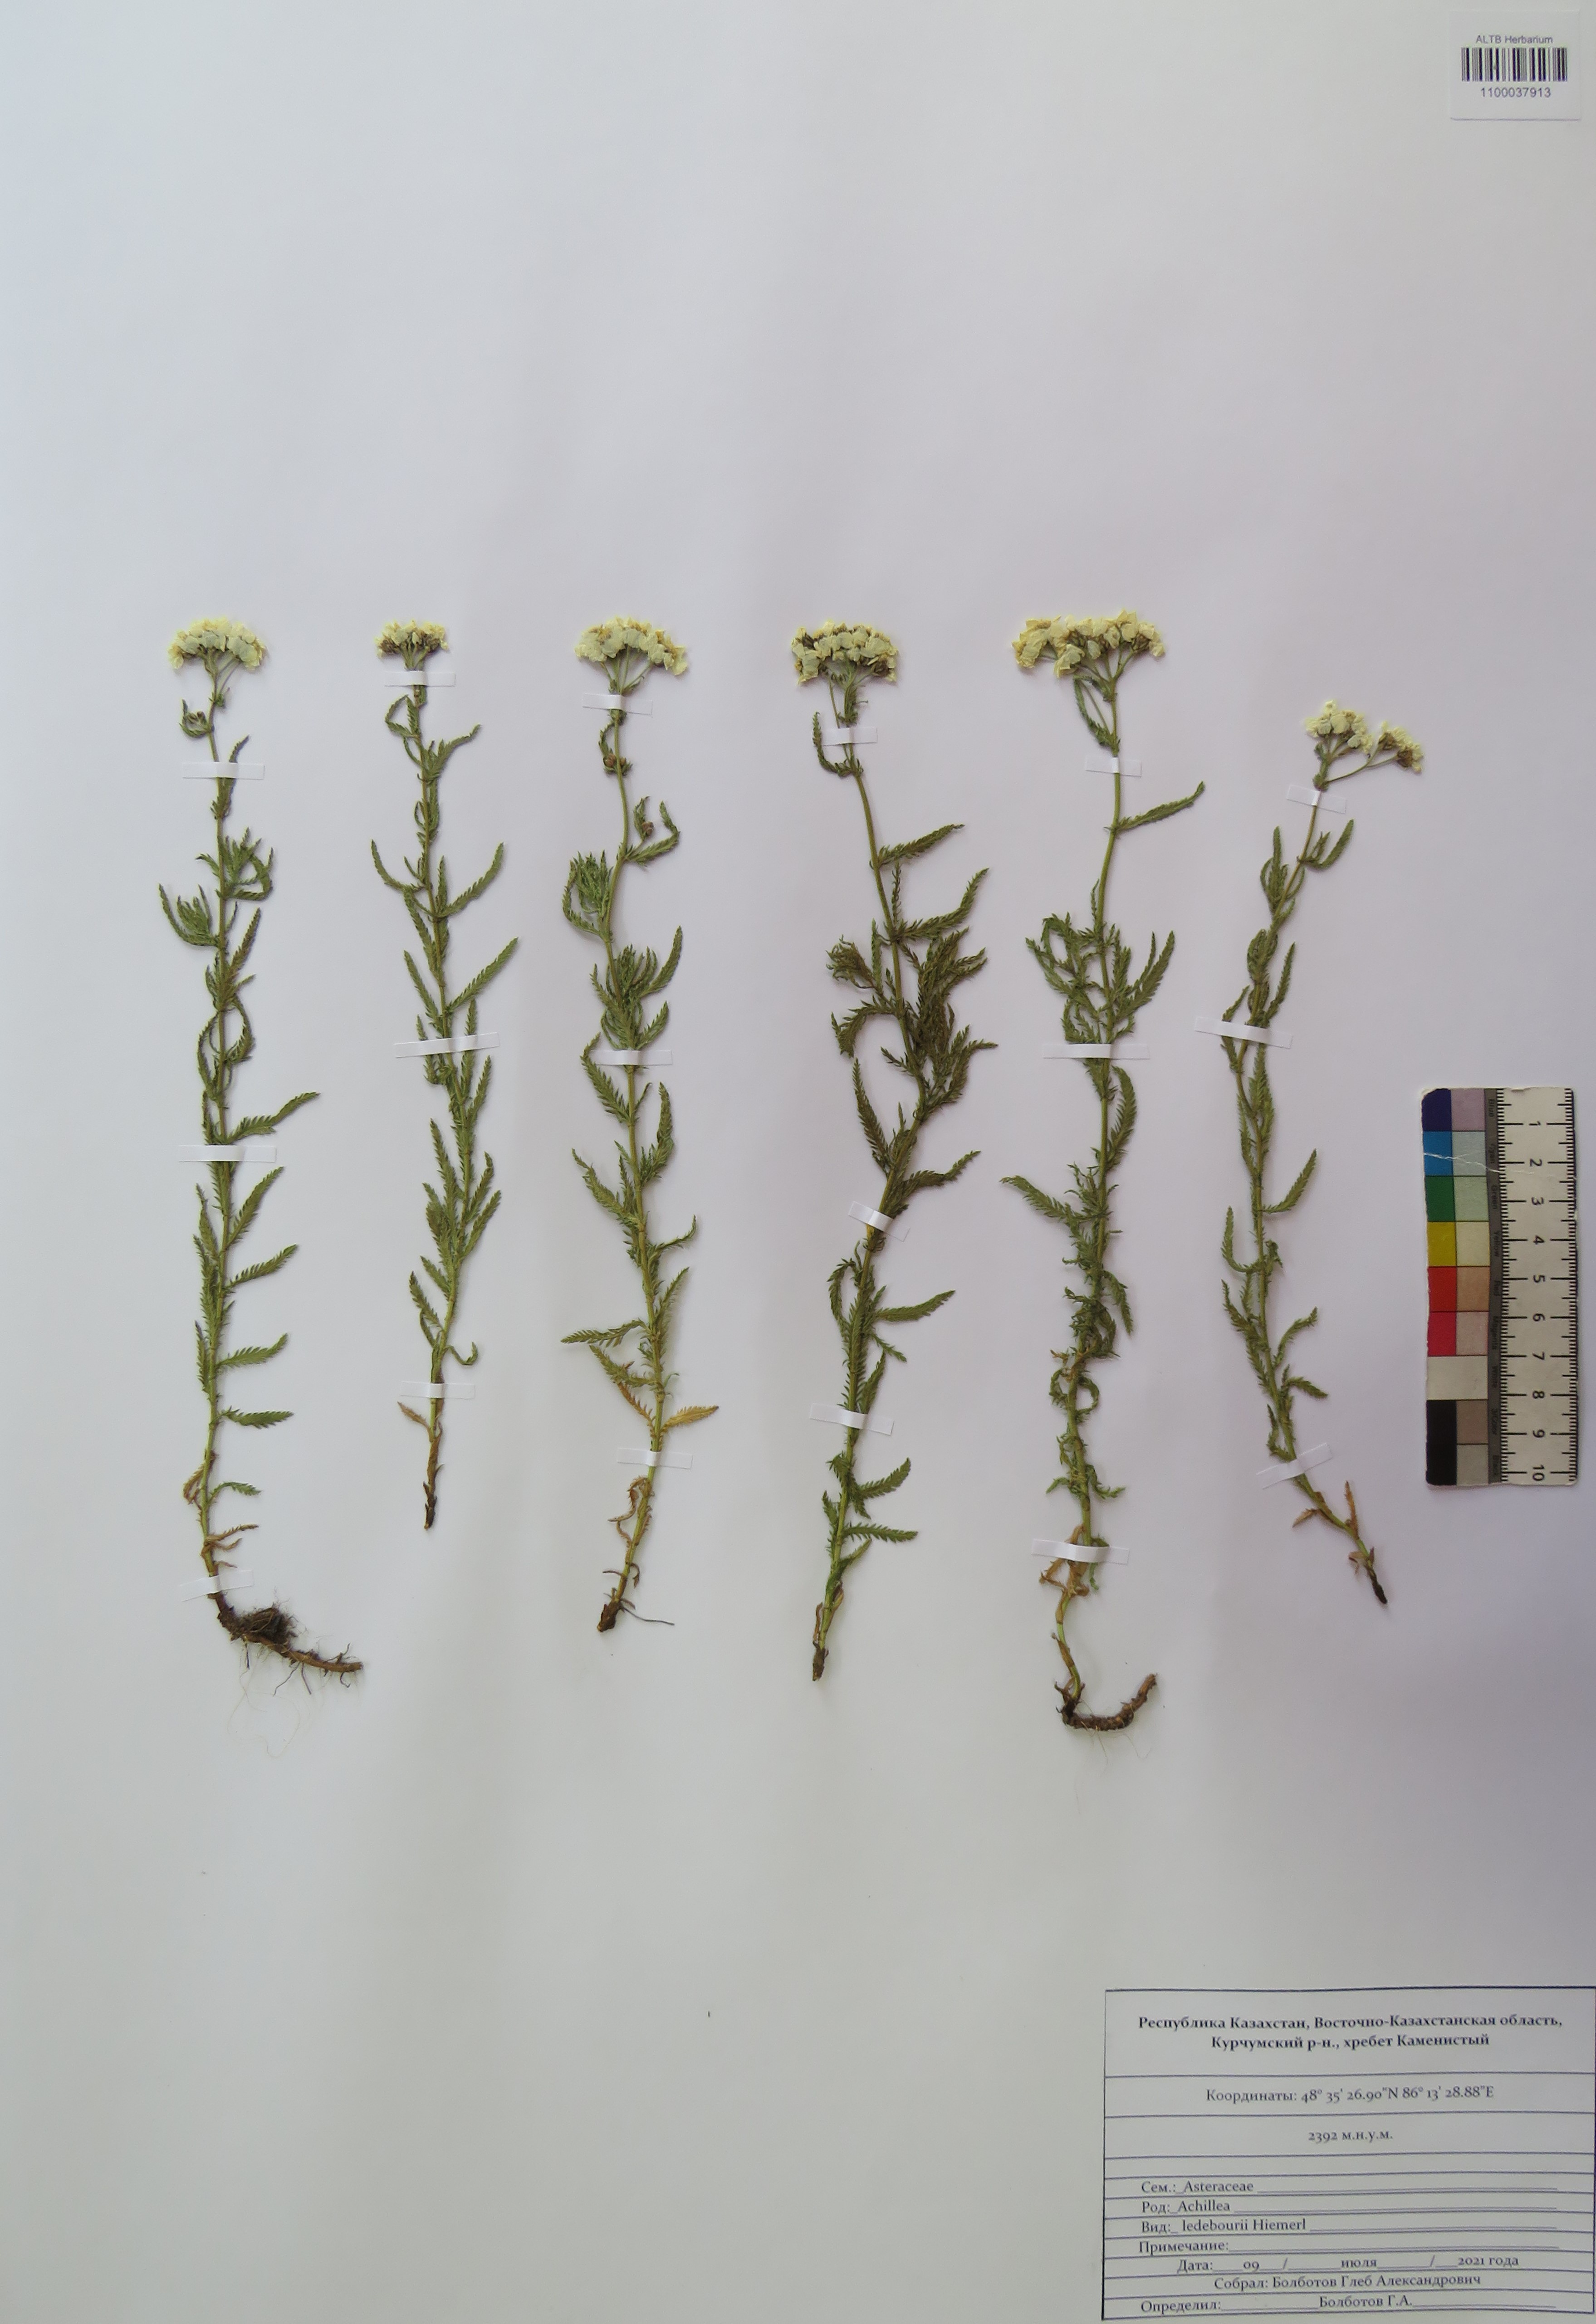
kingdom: Plantae
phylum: Tracheophyta
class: Magnoliopsida
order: Asterales
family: Asteraceae
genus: Achillea
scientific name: Achillea ledebourii
